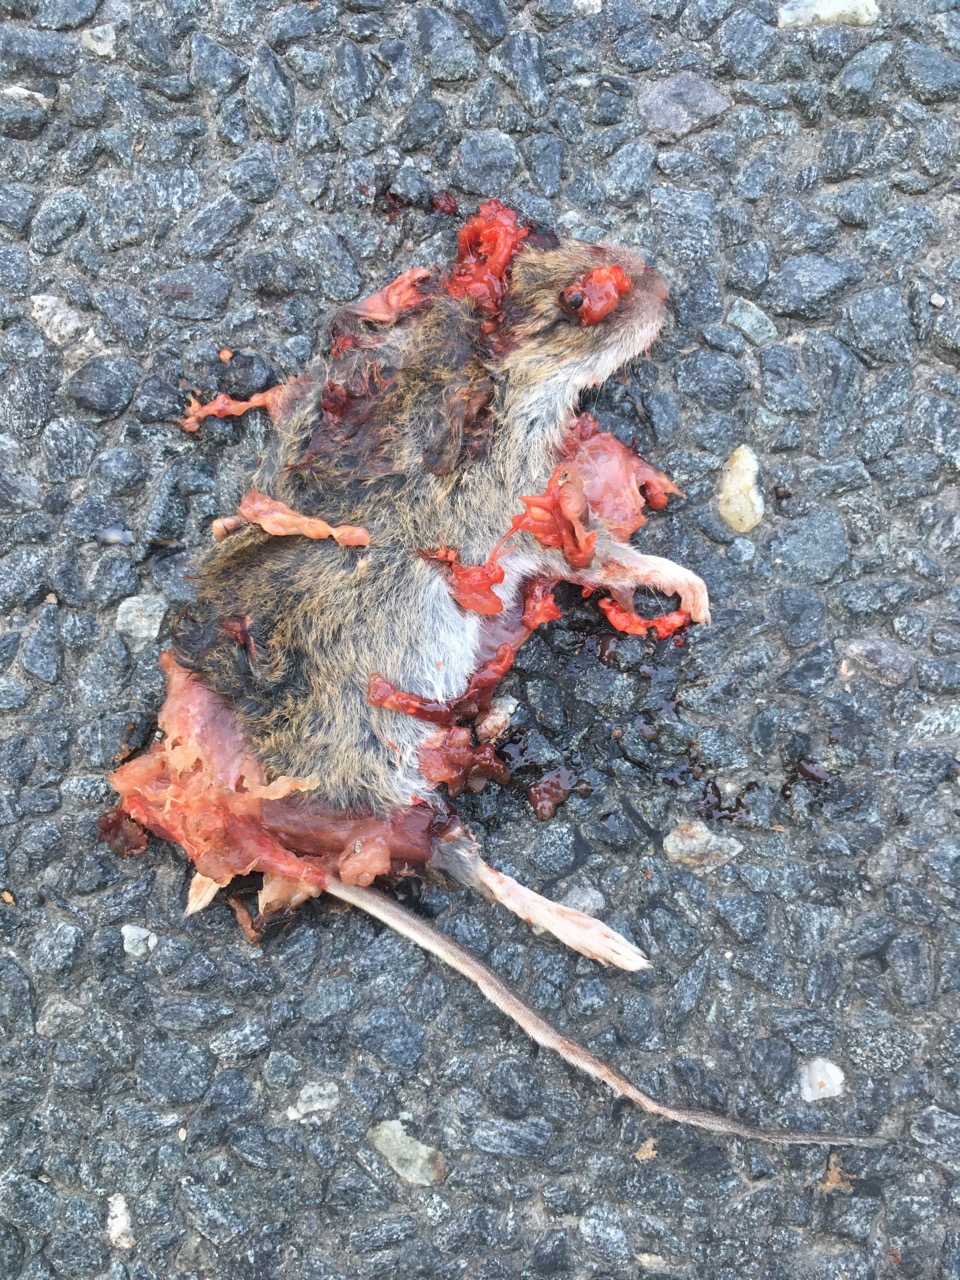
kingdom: Animalia
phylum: Chordata
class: Mammalia
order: Rodentia
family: Muridae
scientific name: Muridae
